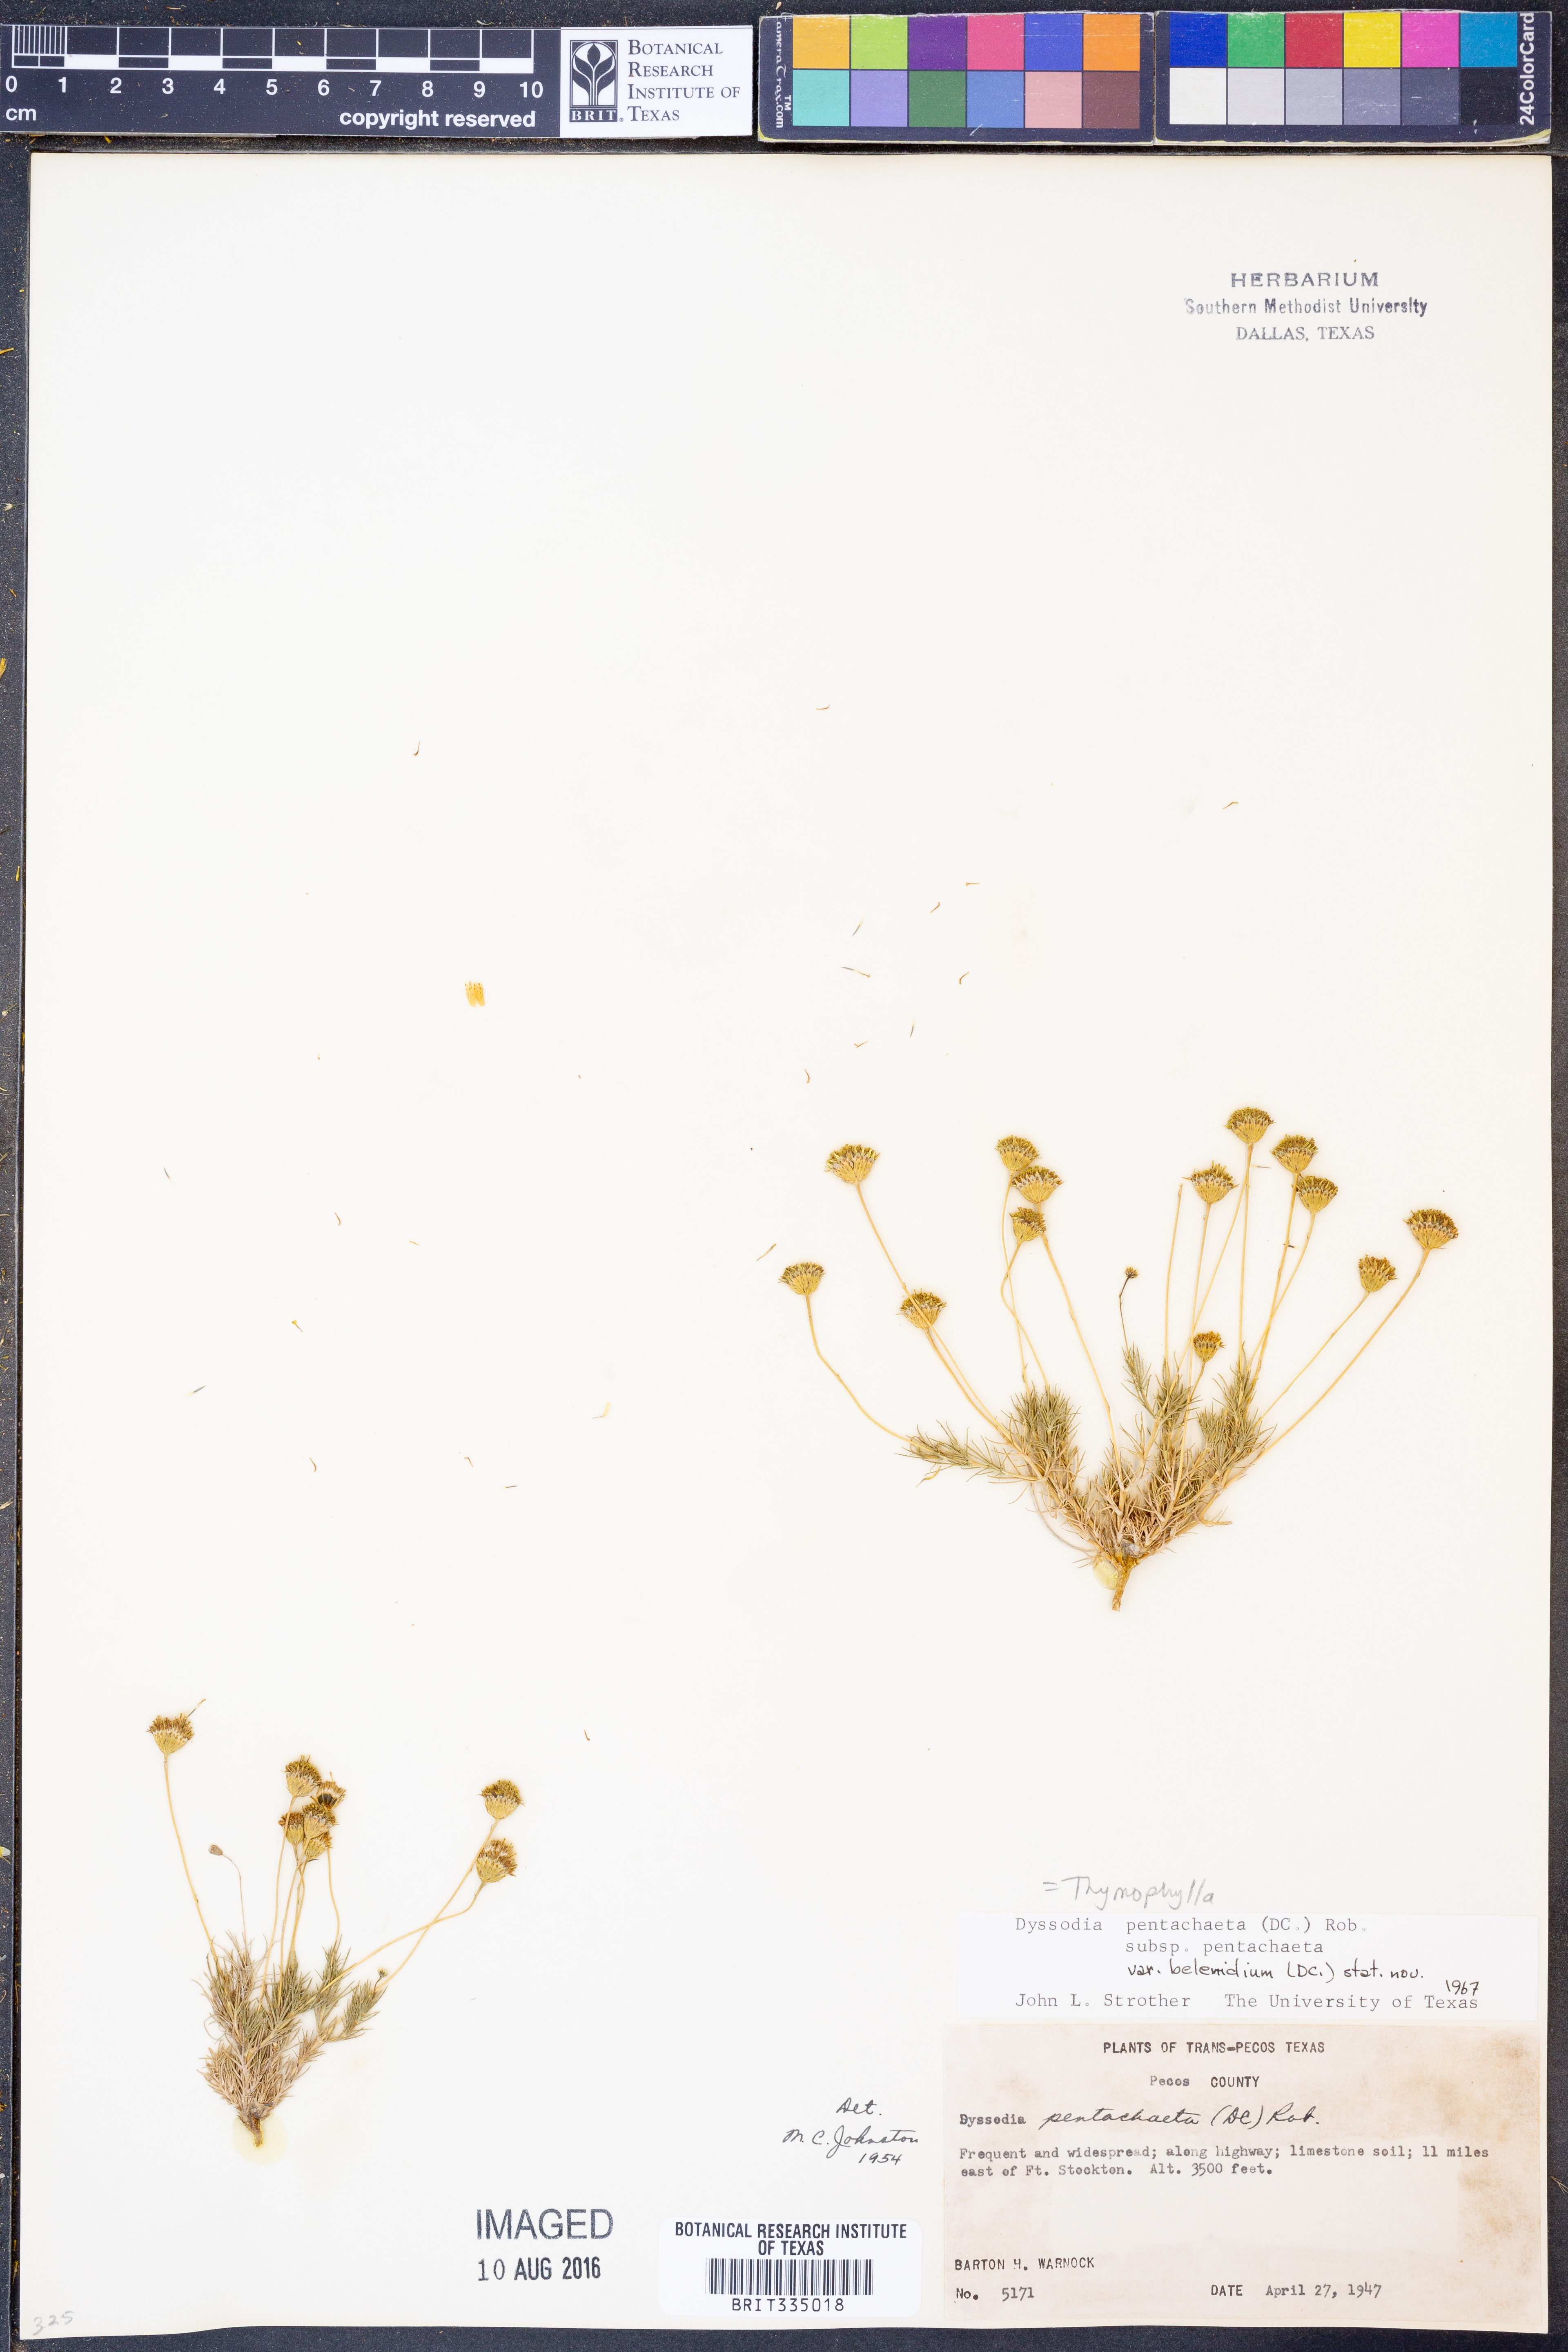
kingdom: Plantae
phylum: Tracheophyta
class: Magnoliopsida
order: Asterales
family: Asteraceae
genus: Thymophylla
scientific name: Thymophylla pentachaeta
